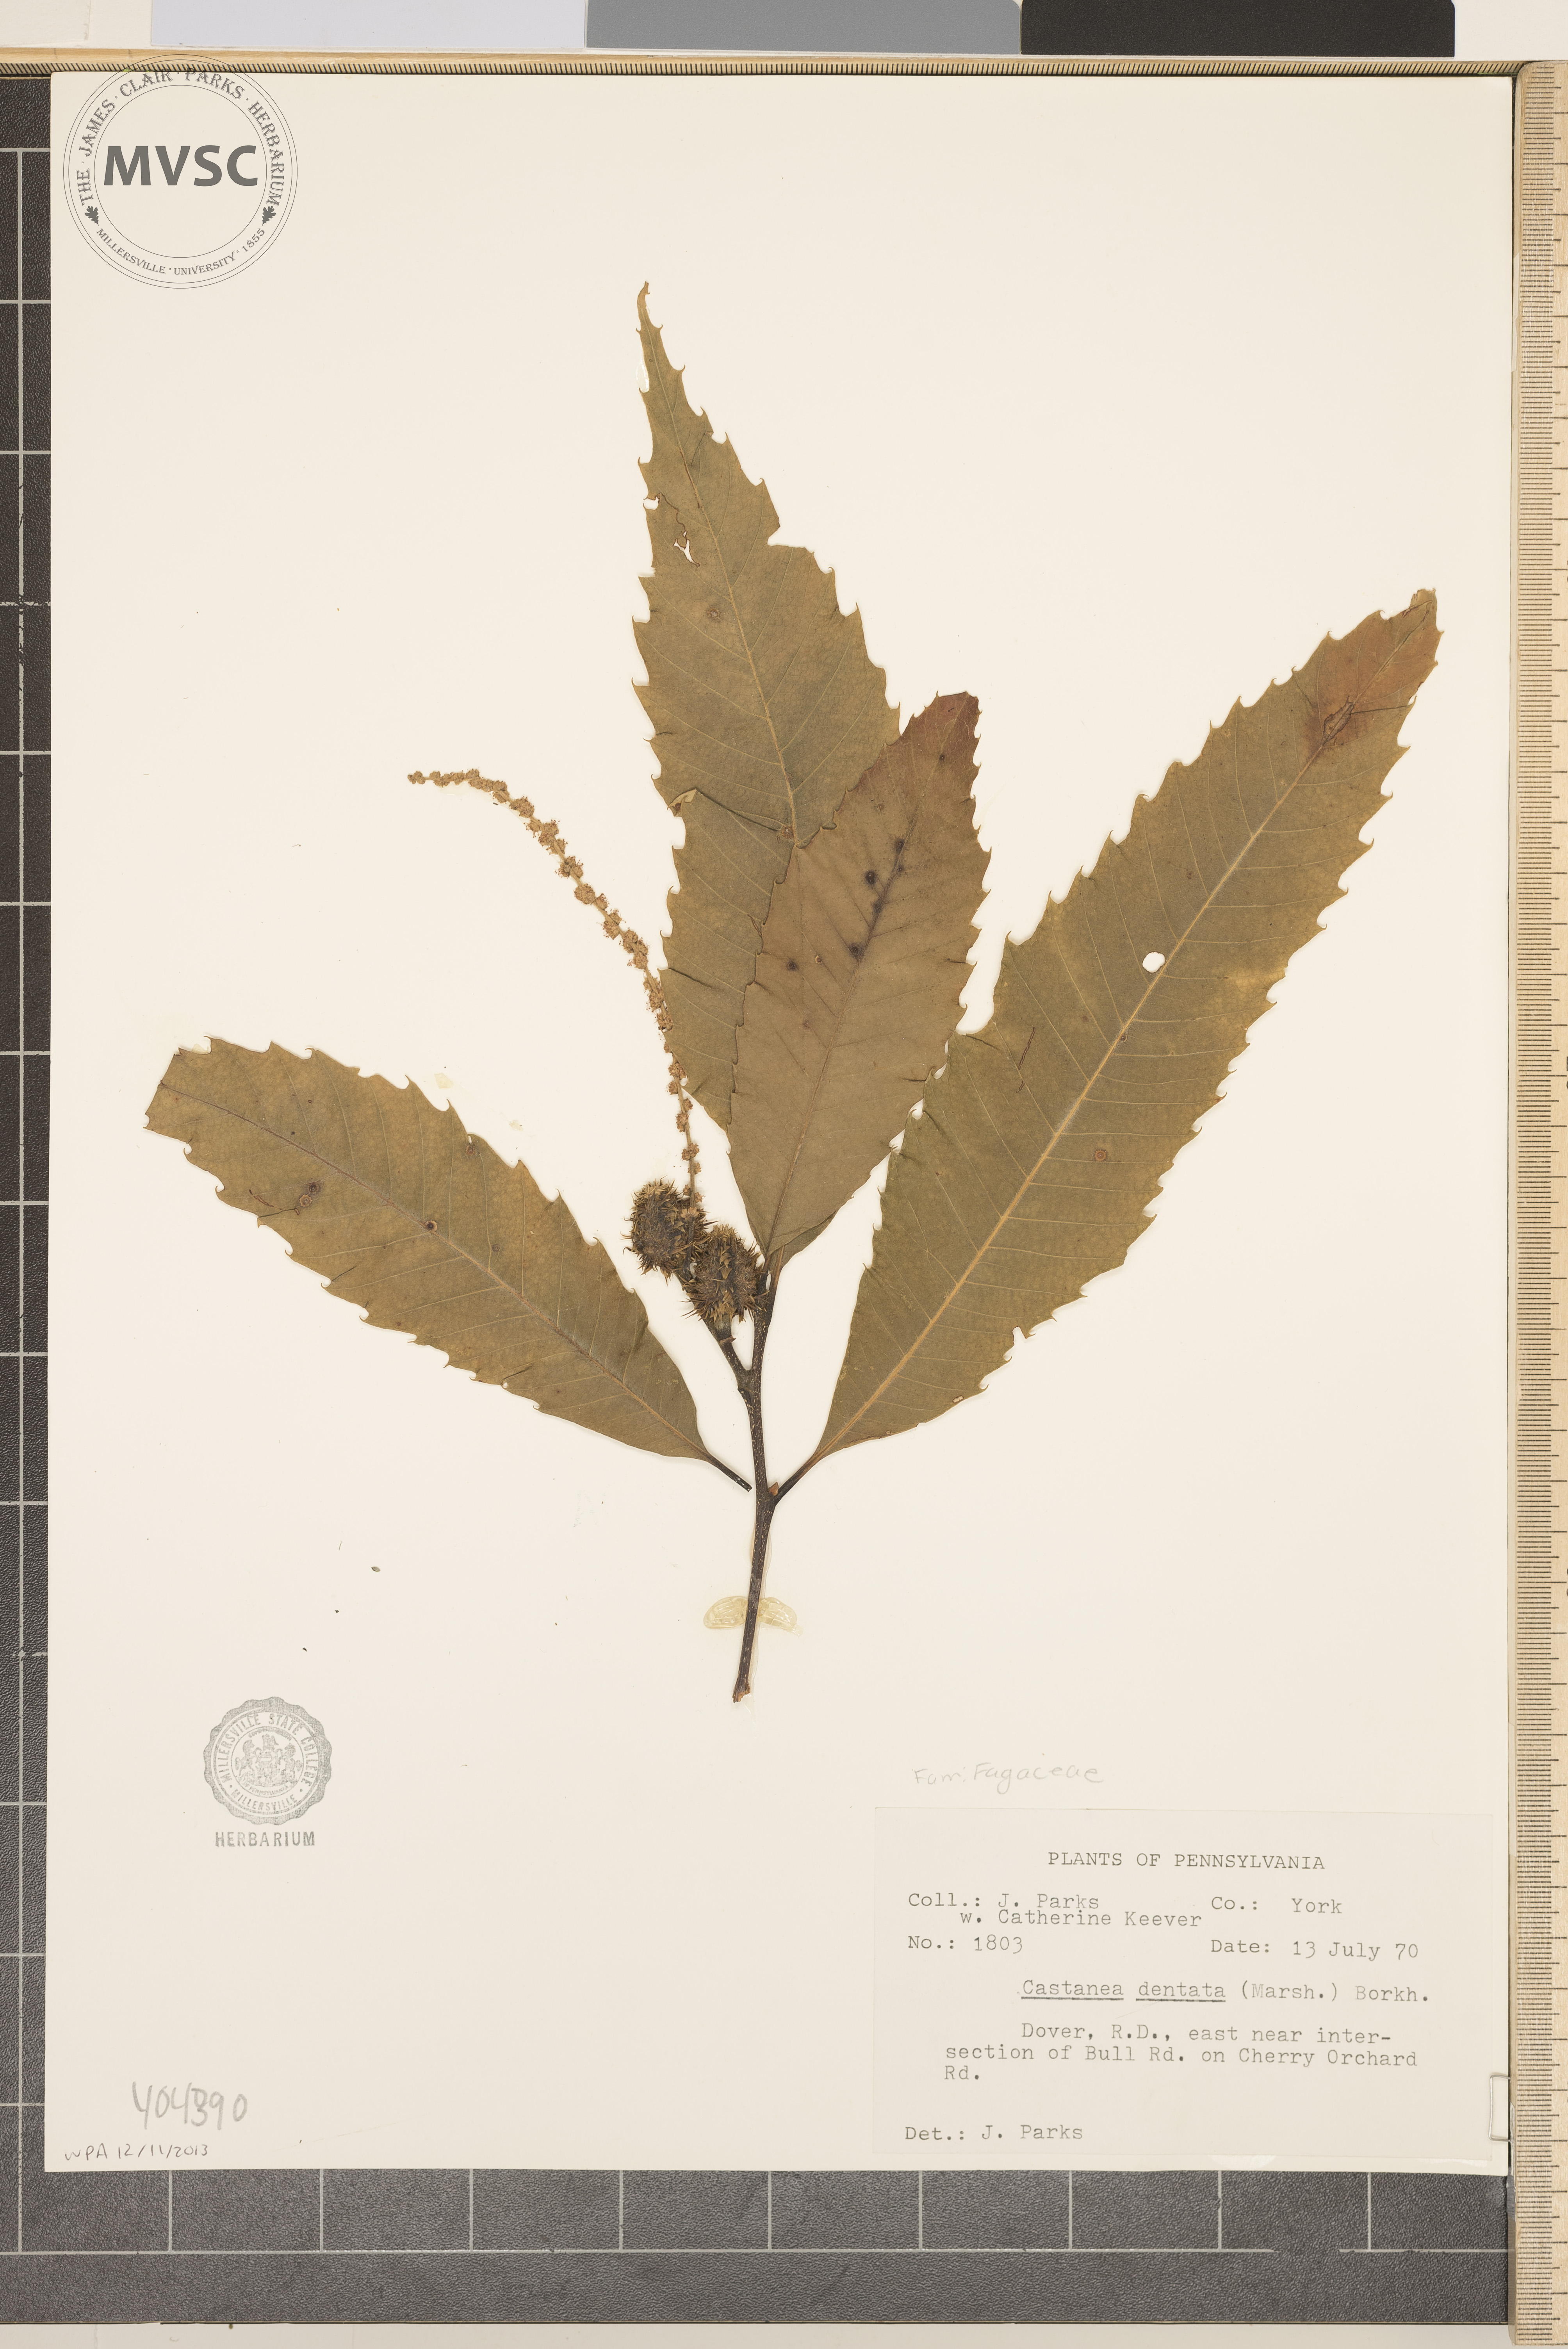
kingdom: Plantae
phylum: Tracheophyta
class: Magnoliopsida
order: Fagales
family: Fagaceae
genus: Castanea
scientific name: Castanea dentata
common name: American chestnut
